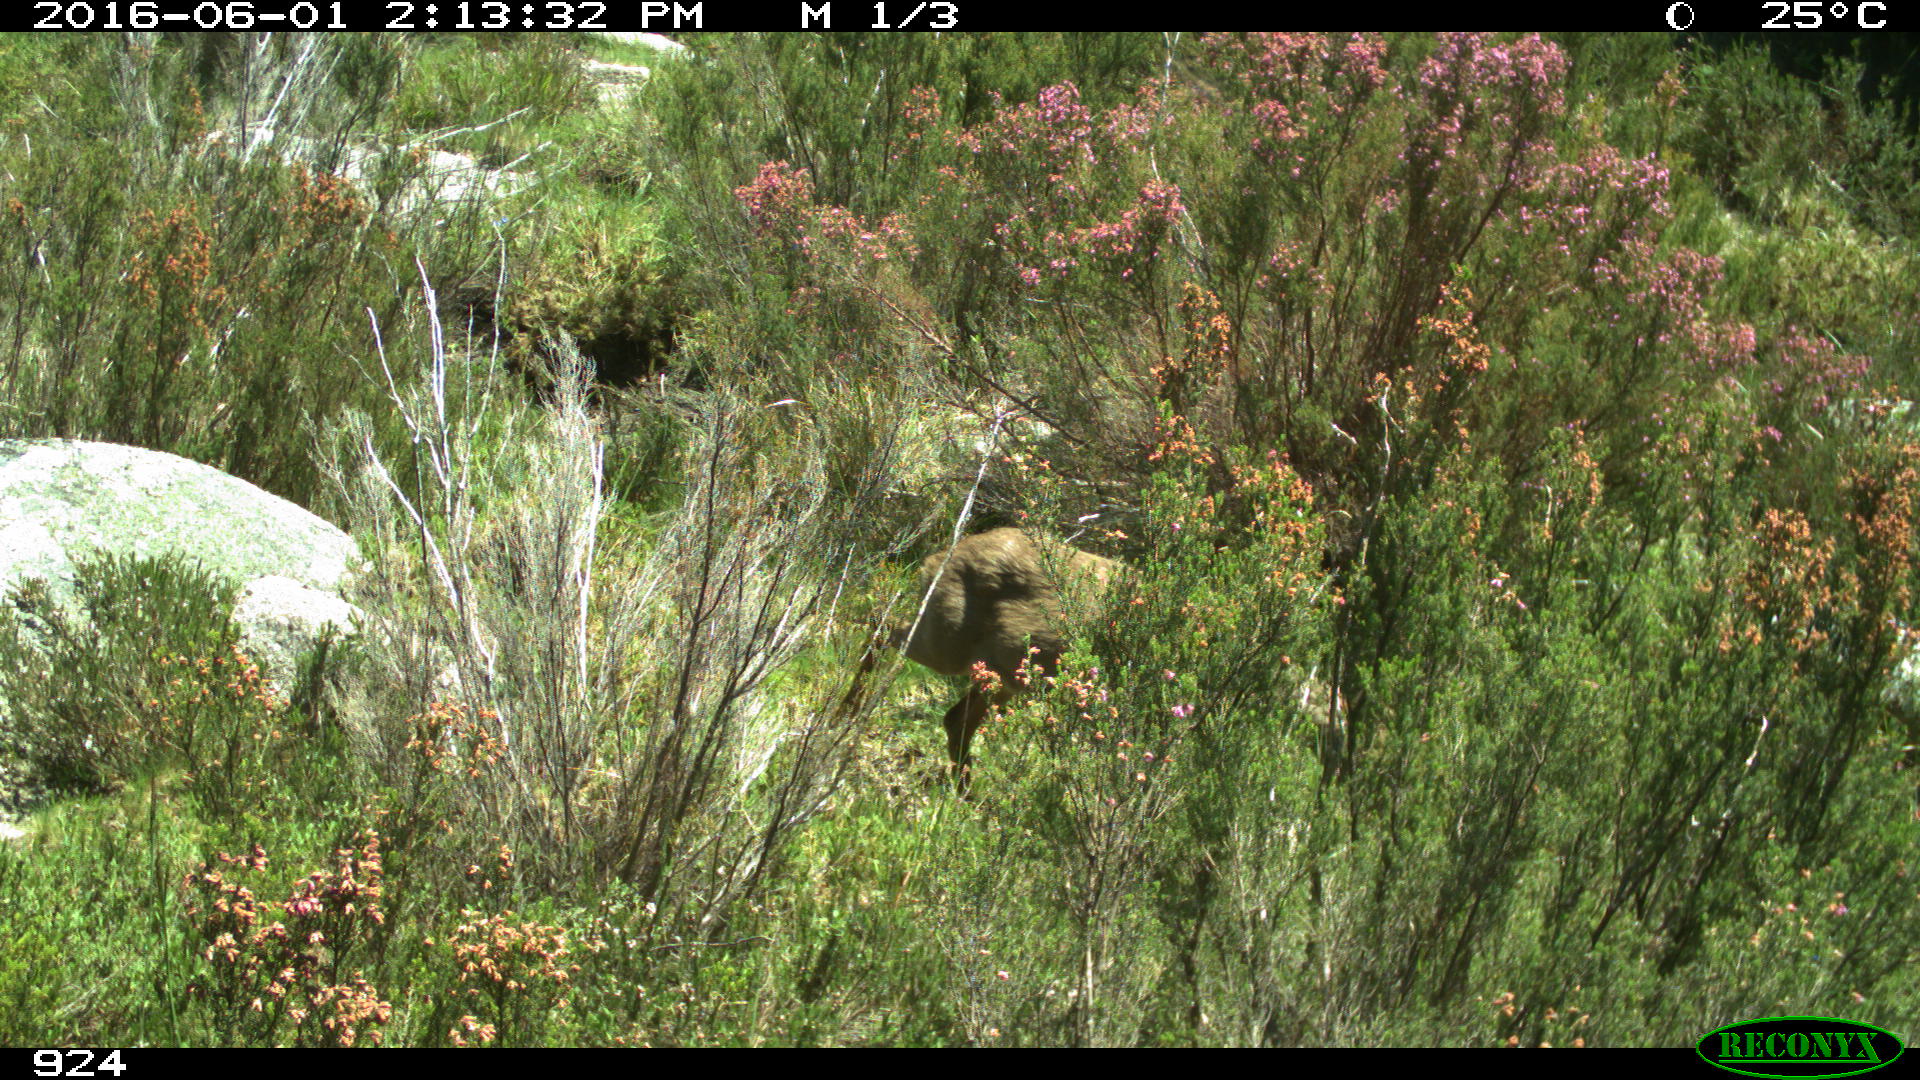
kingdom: Animalia
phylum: Chordata
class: Mammalia
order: Artiodactyla
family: Cervidae
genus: Capreolus
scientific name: Capreolus capreolus
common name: Western roe deer
